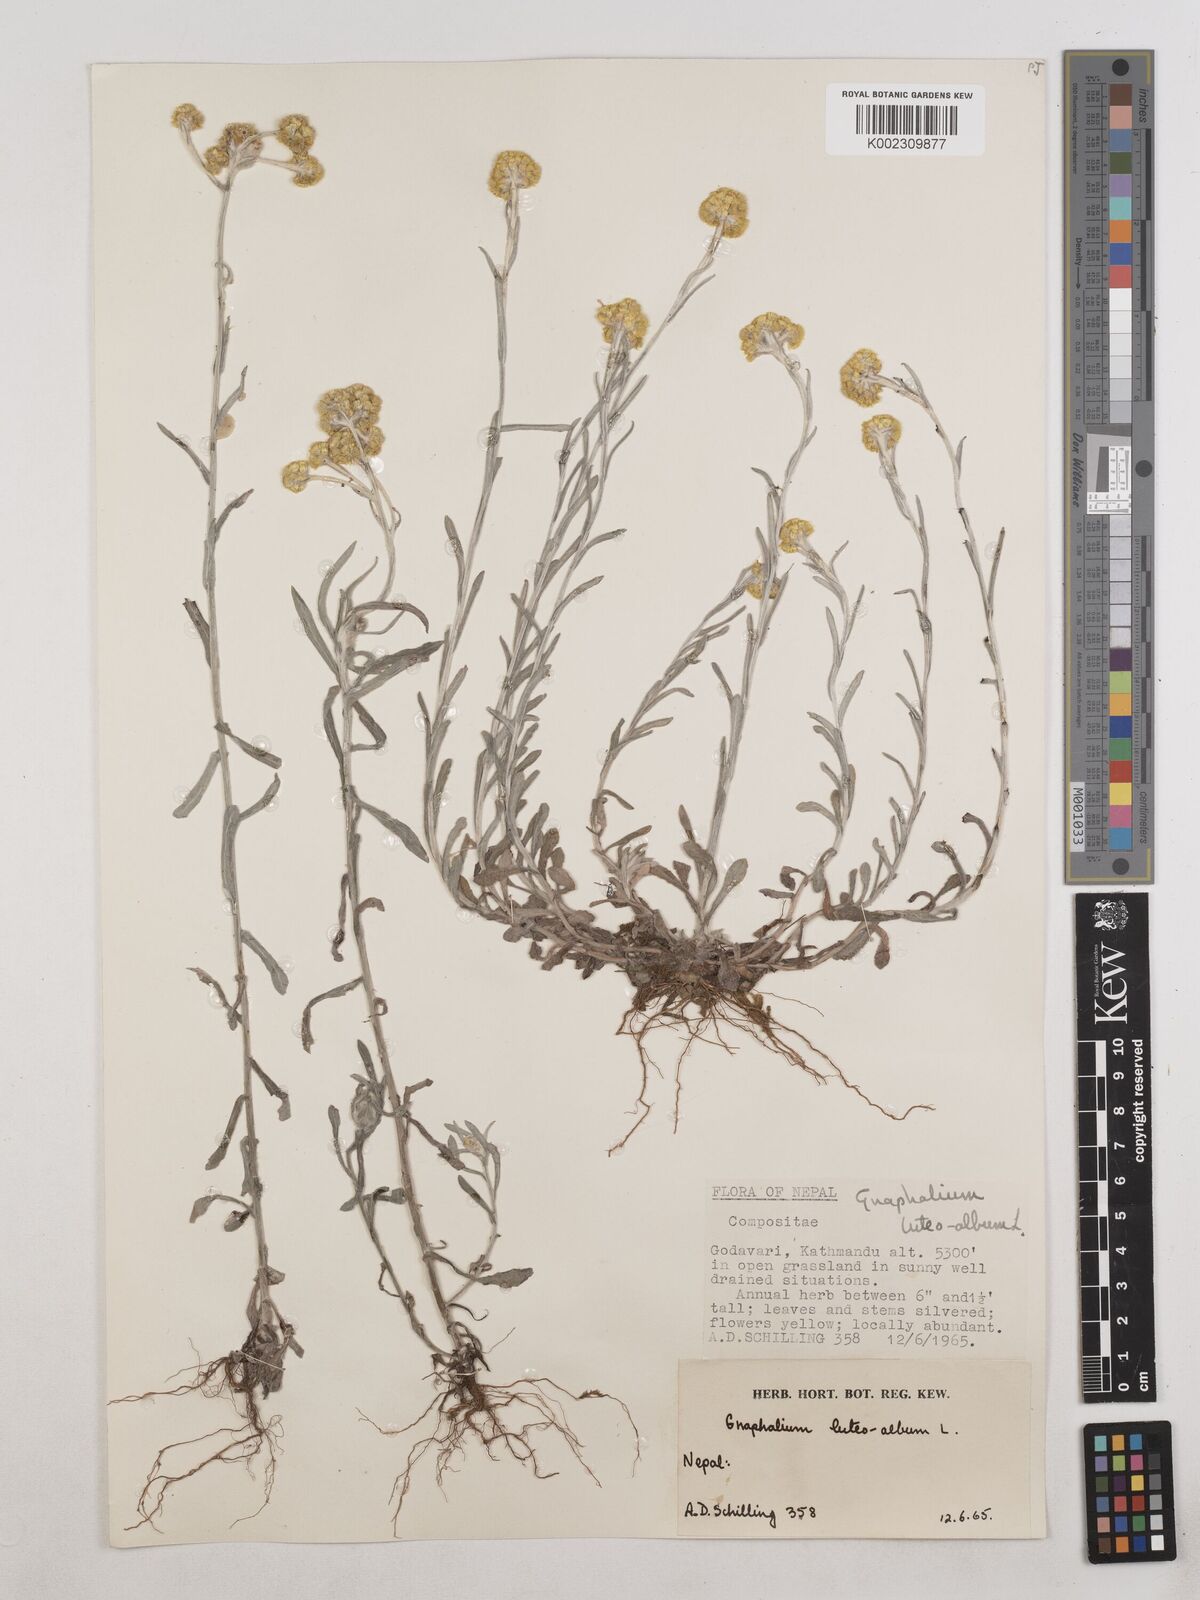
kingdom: Plantae
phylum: Tracheophyta
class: Magnoliopsida
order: Asterales
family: Asteraceae
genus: Pseudognaphalium
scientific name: Pseudognaphalium affine
